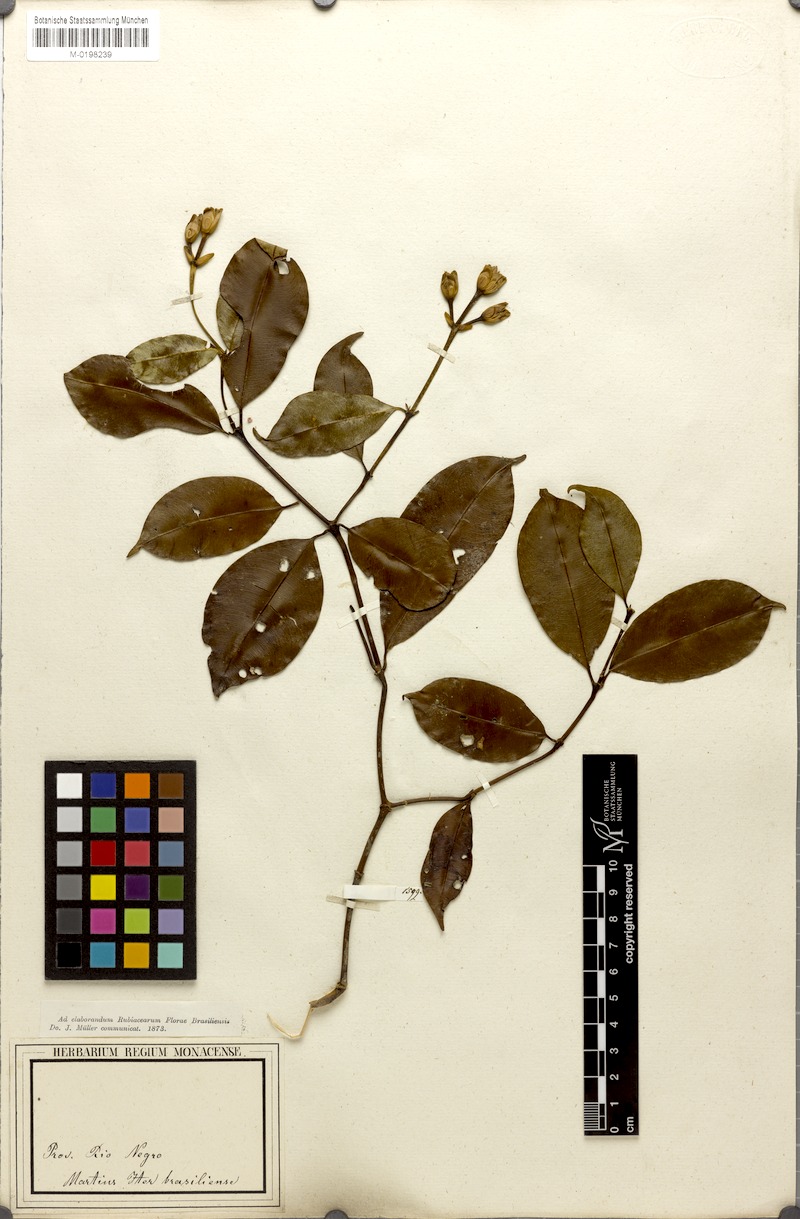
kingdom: Plantae
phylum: Tracheophyta
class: Magnoliopsida
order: Gentianales
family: Rubiaceae
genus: Palicourea
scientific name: Palicourea triadica
